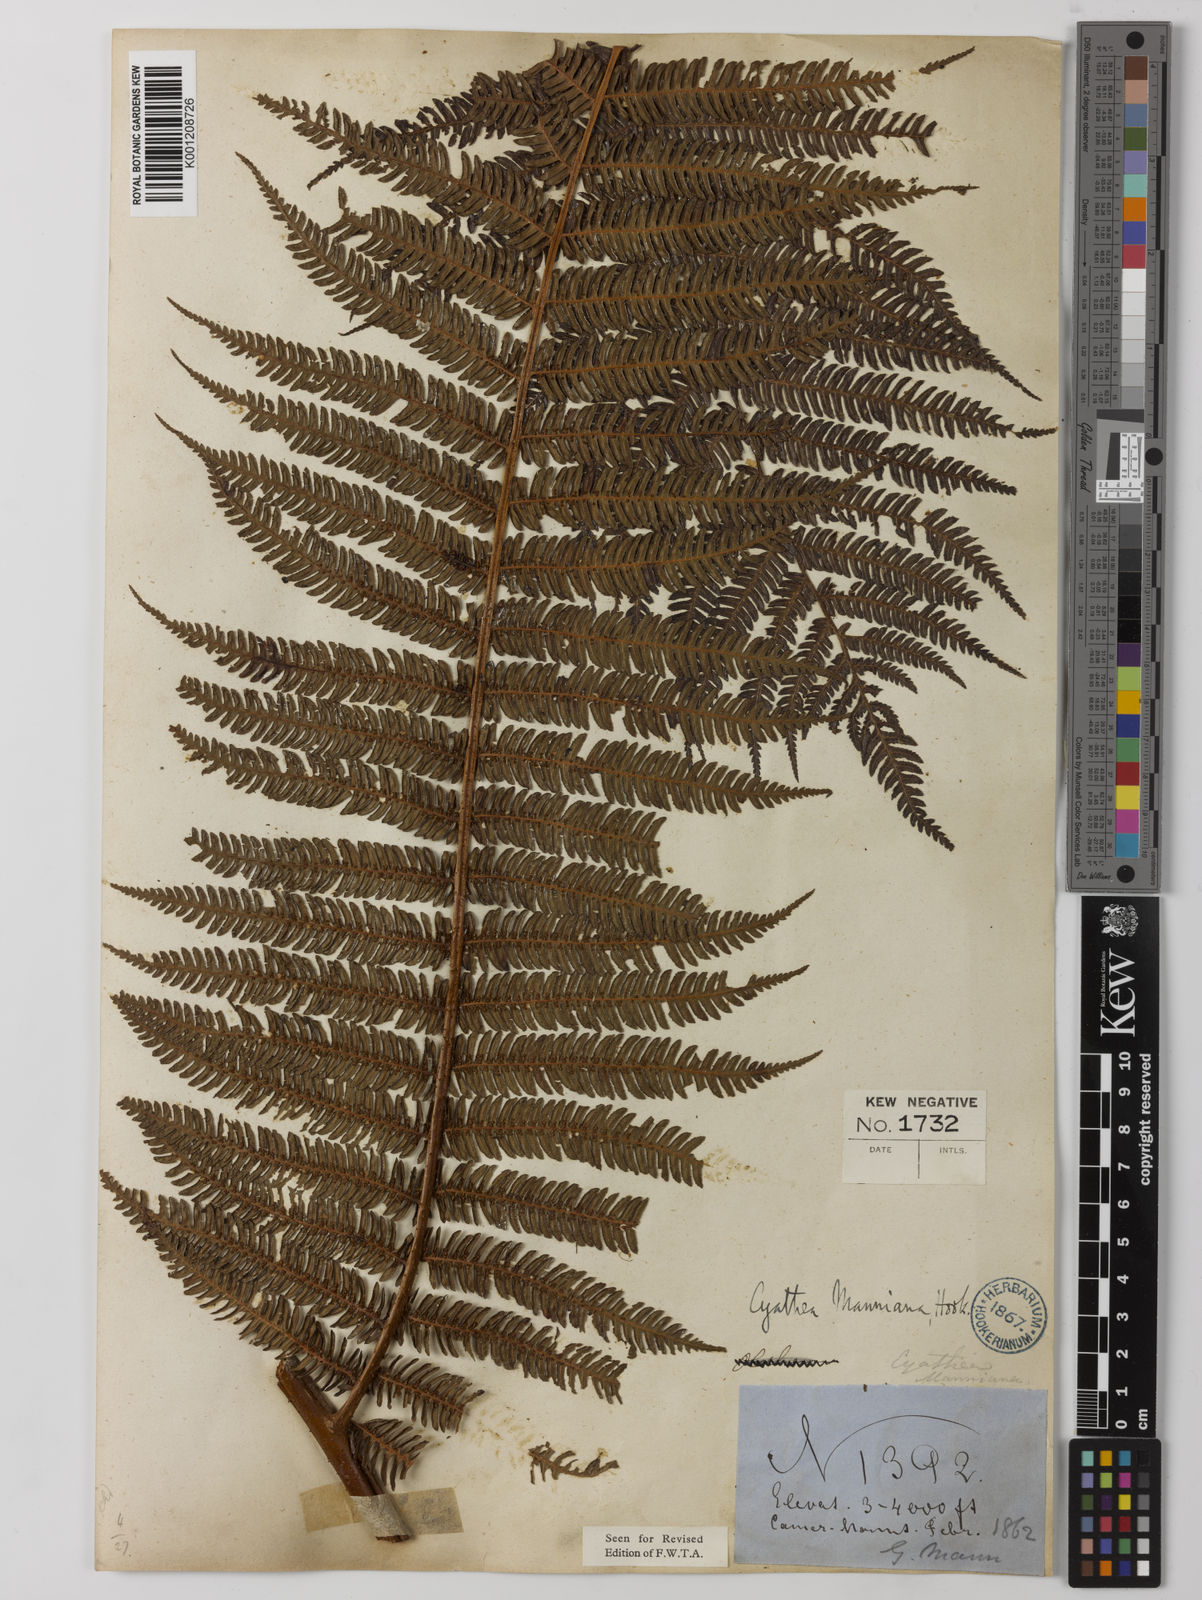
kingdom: Plantae
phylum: Tracheophyta
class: Polypodiopsida
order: Cyatheales
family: Cyatheaceae
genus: Alsophila
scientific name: Alsophila manniana
